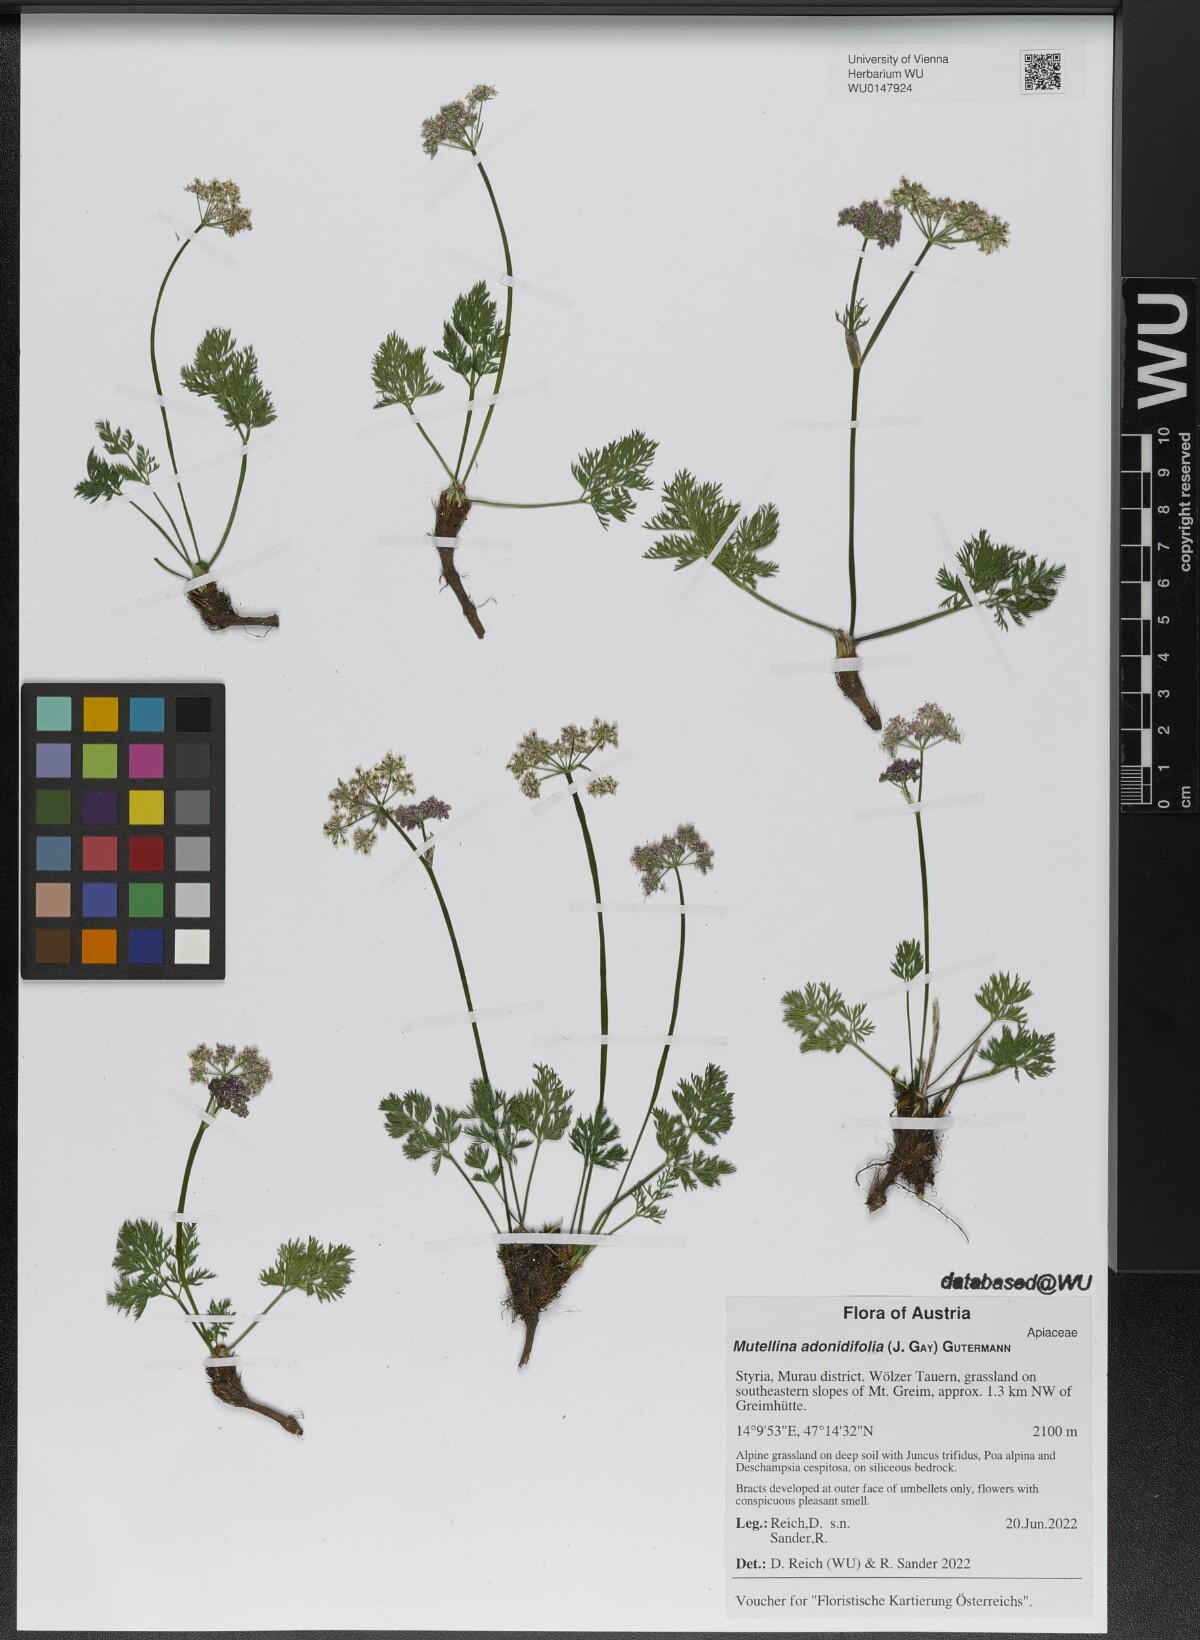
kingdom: Plantae
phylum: Tracheophyta
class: Magnoliopsida
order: Apiales
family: Apiaceae
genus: Mutellina
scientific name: Mutellina adonidifolia
